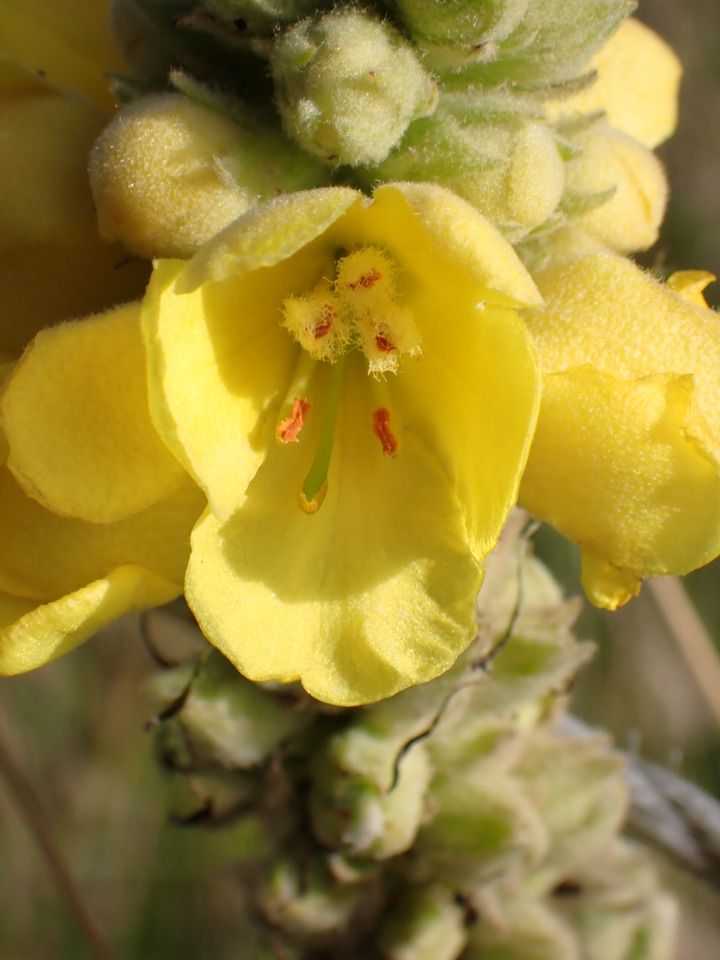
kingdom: Plantae
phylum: Tracheophyta
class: Magnoliopsida
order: Lamiales
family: Scrophulariaceae
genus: Verbascum
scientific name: Verbascum densiflorum
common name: Uldbladet kongelys
